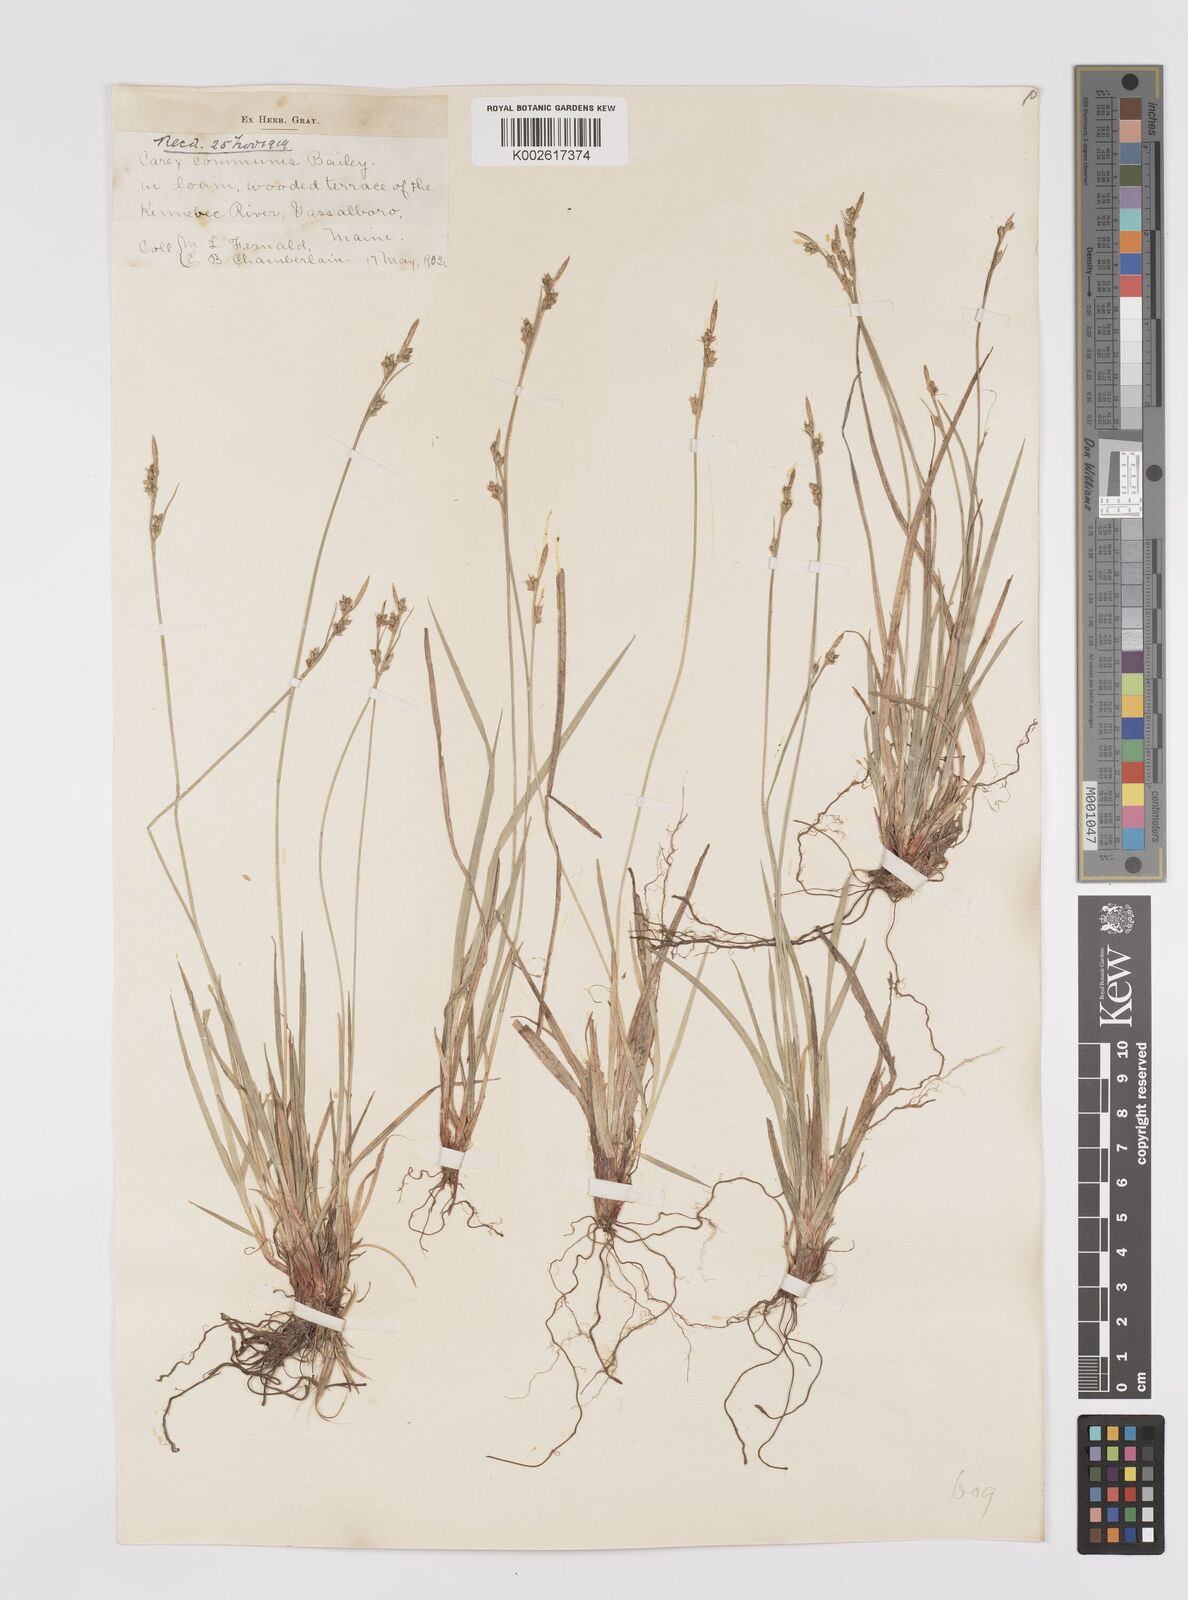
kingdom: Plantae
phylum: Tracheophyta
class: Liliopsida
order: Poales
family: Cyperaceae
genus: Carex
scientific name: Carex communis
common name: Colonial oak sedge
